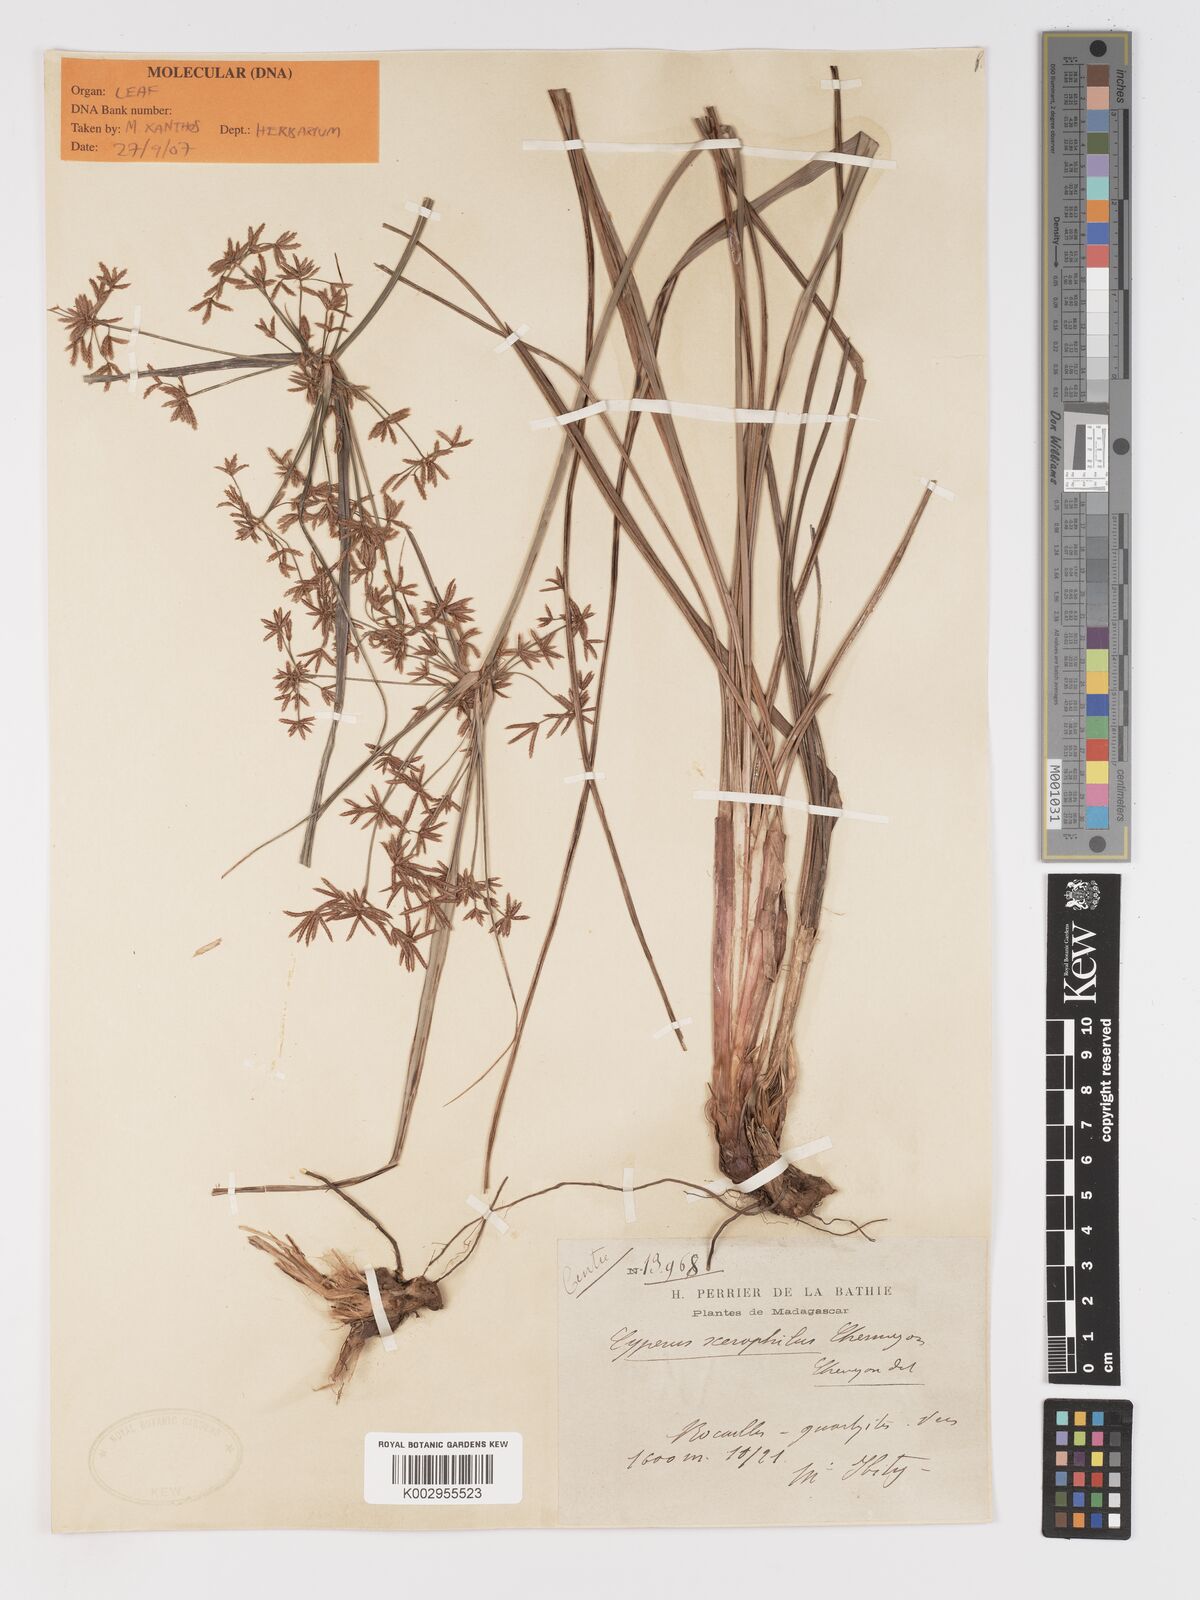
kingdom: Plantae
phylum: Tracheophyta
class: Liliopsida
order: Poales
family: Cyperaceae
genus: Cyperus
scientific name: Cyperus xerophilus
